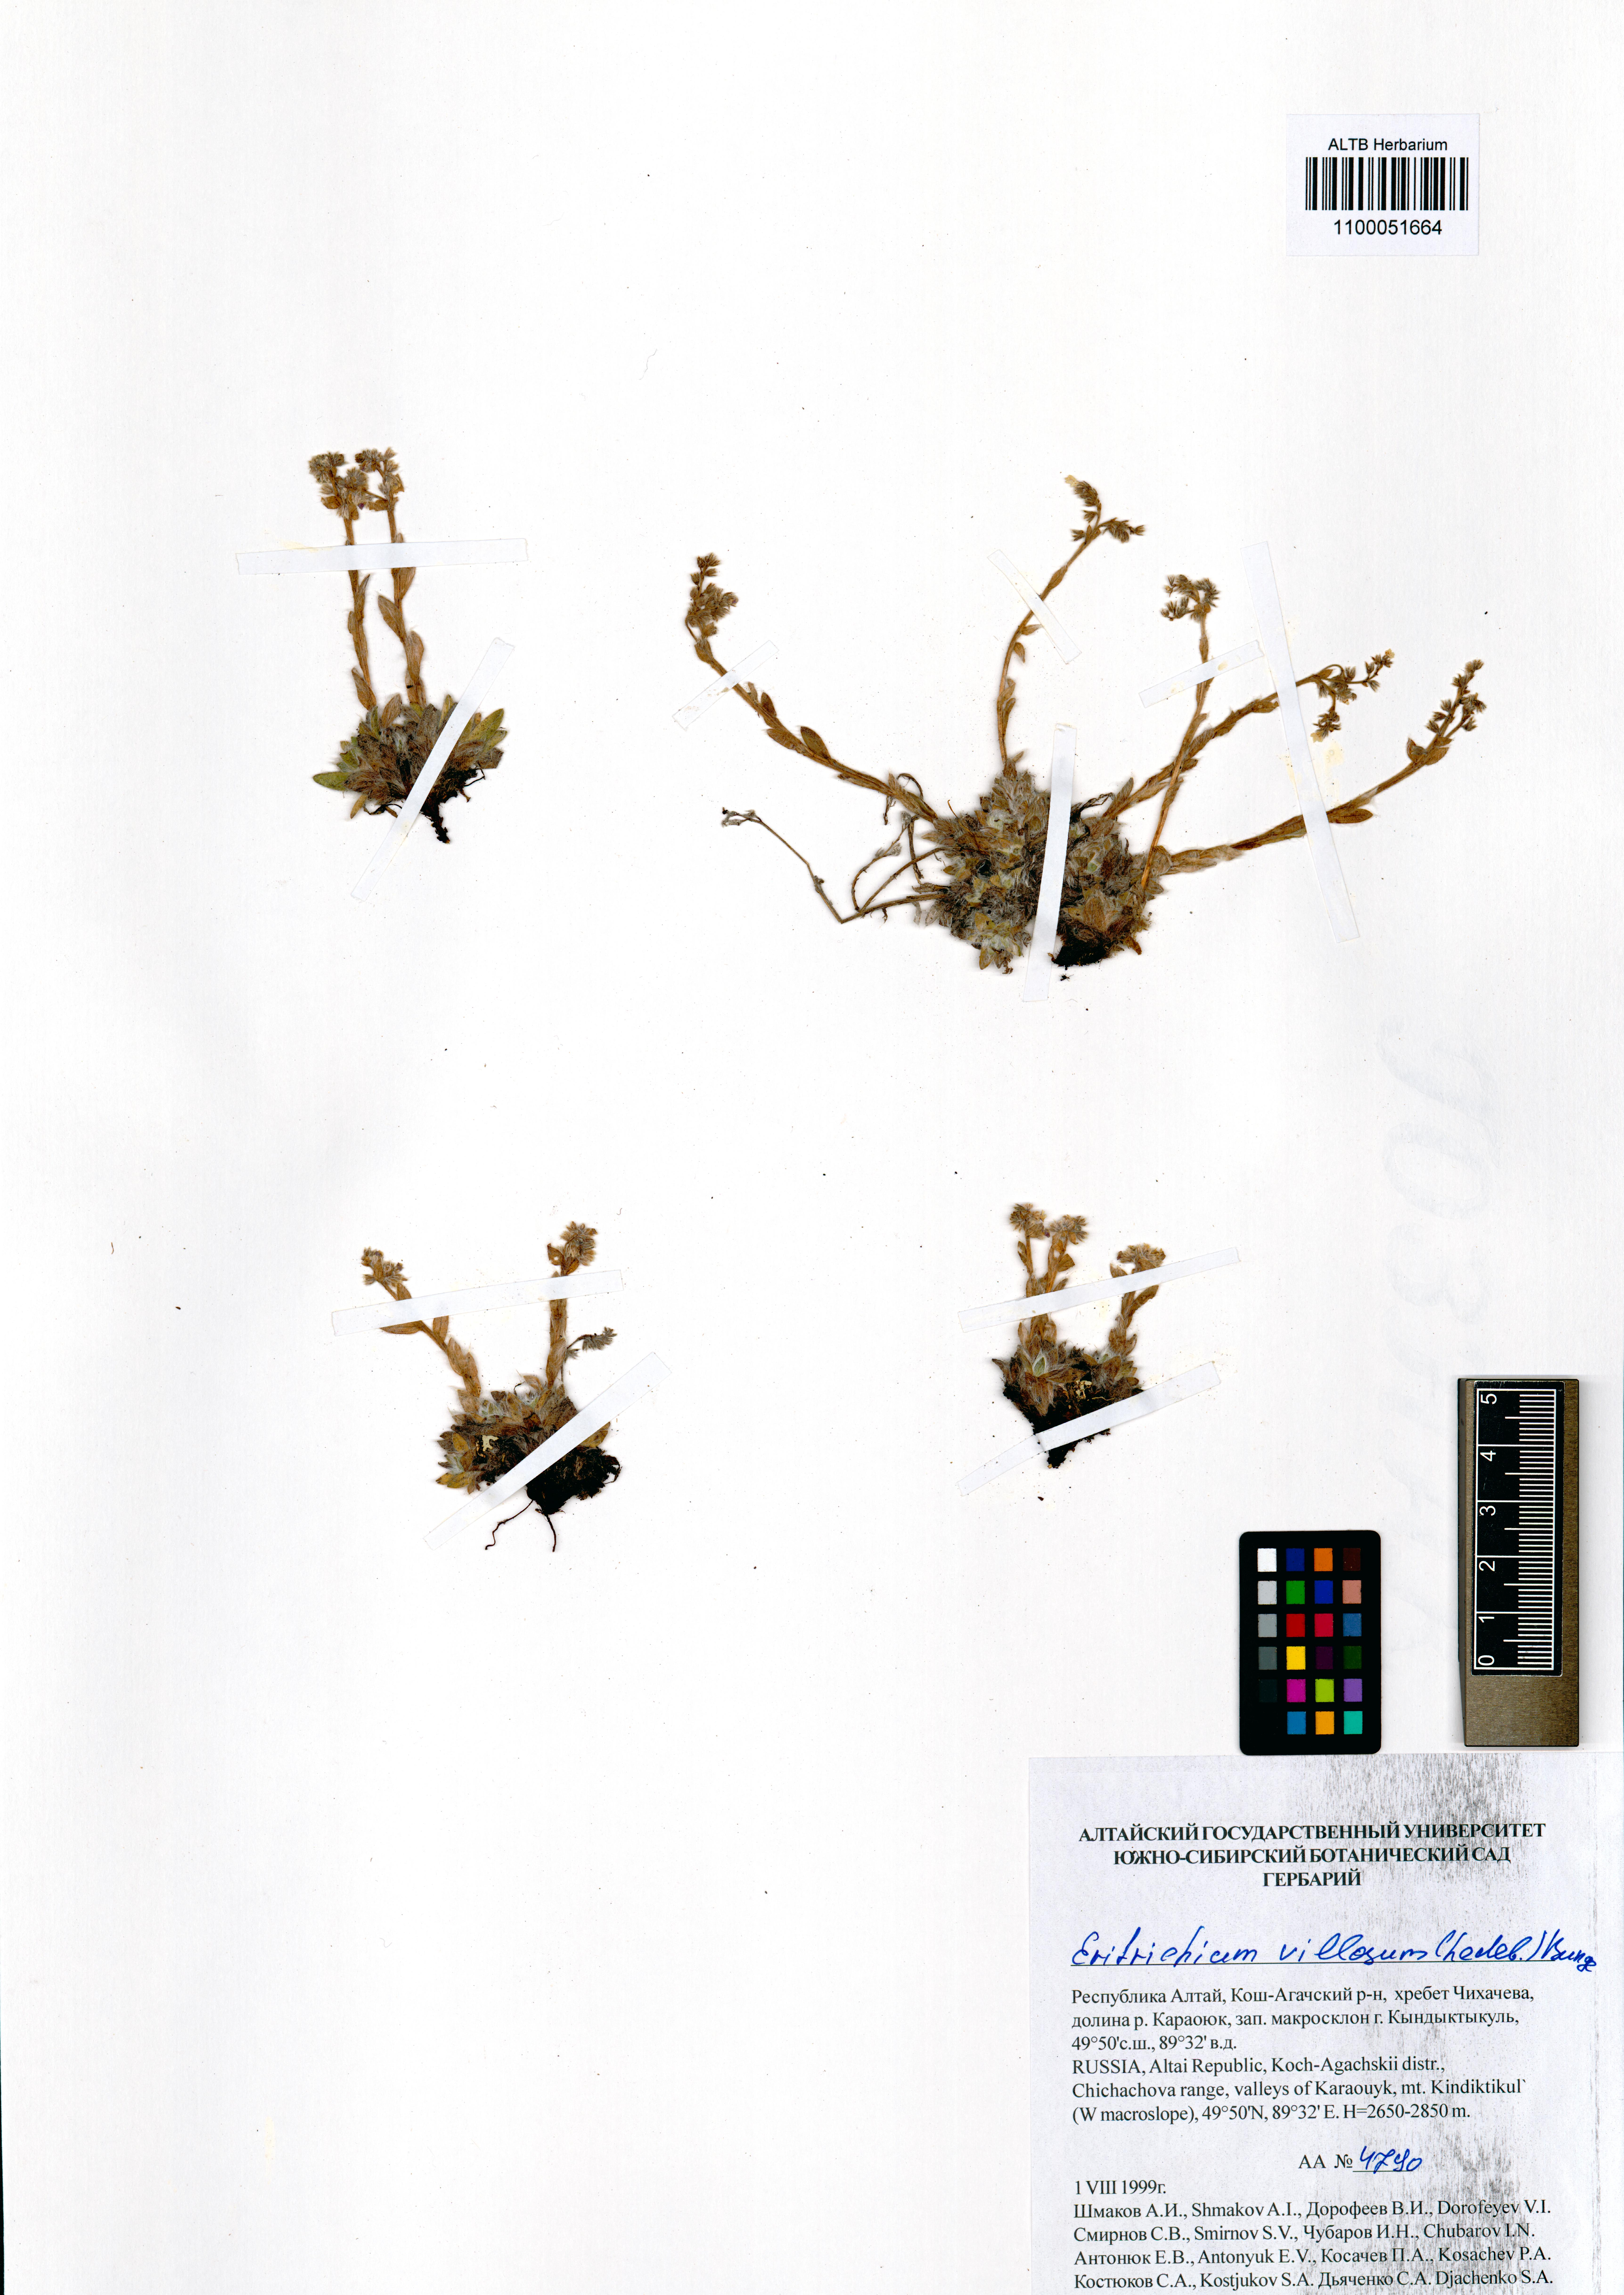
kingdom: Plantae
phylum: Tracheophyta
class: Magnoliopsida
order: Boraginales
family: Boraginaceae
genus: Eritrichium
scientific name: Eritrichium villosum
